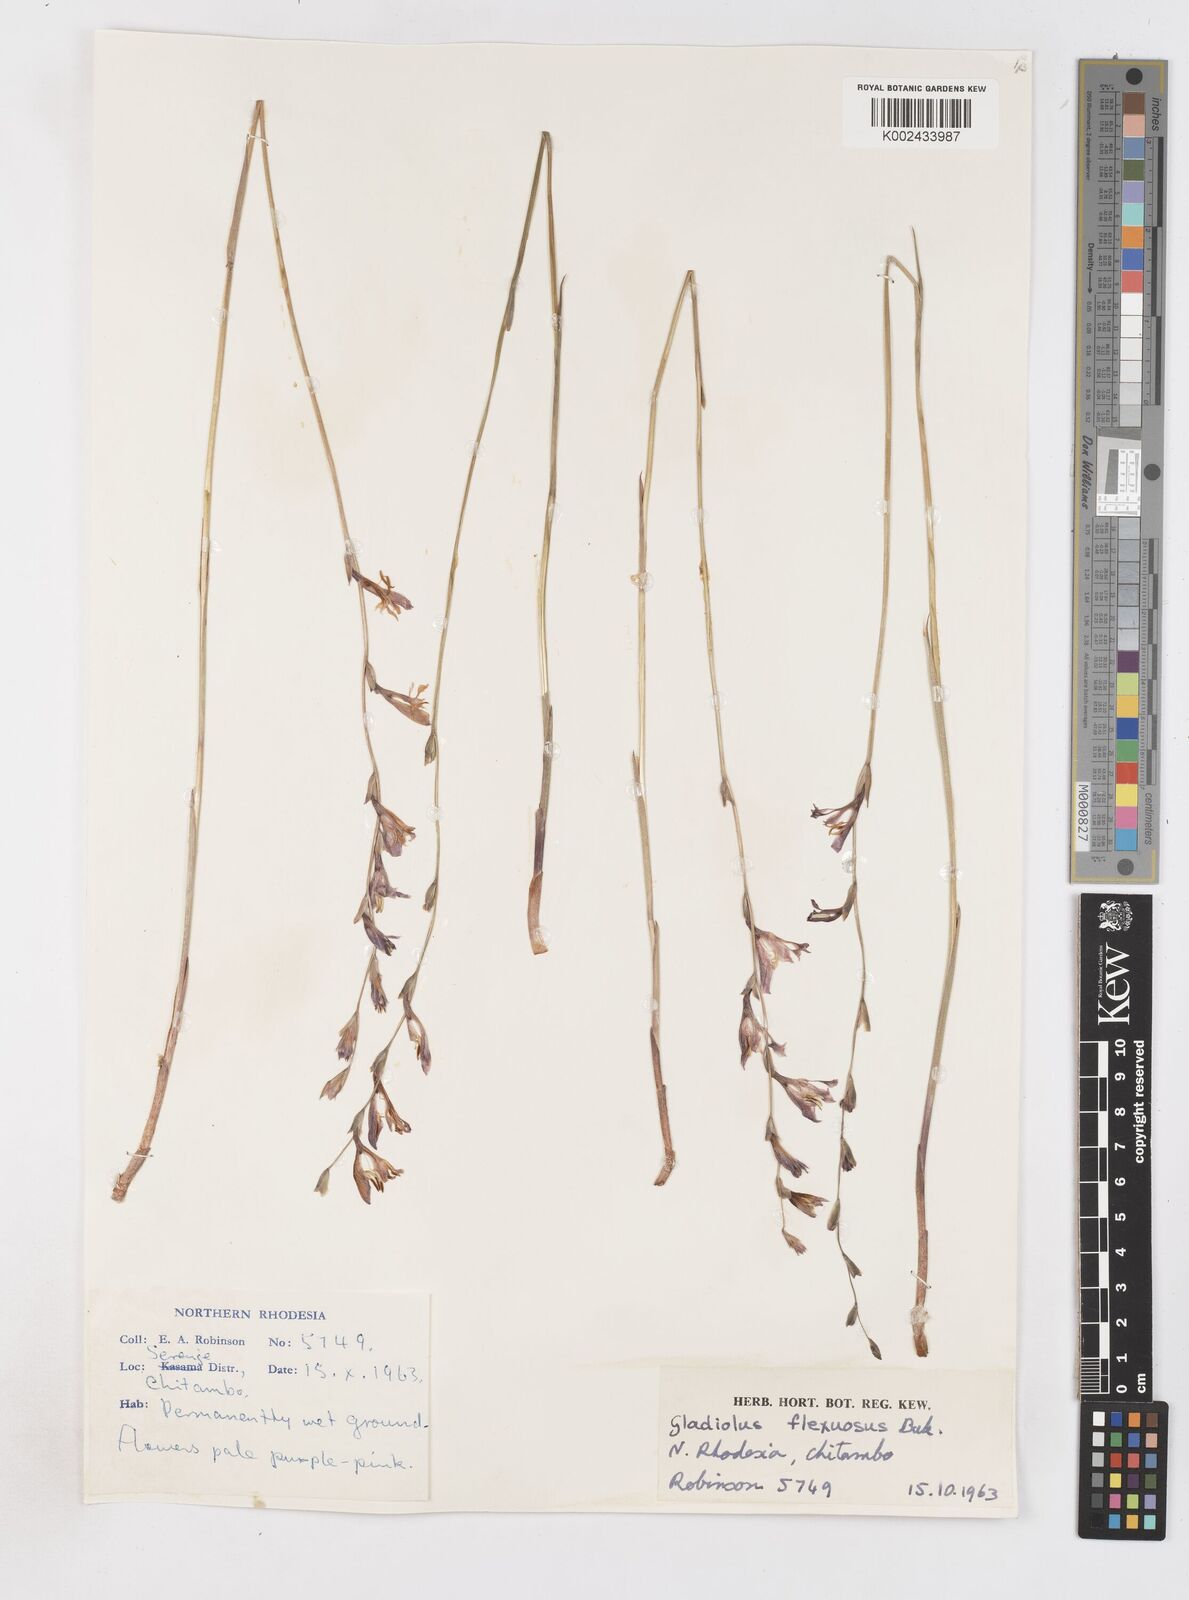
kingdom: Plantae
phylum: Tracheophyta
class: Liliopsida
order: Asparagales
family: Iridaceae
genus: Gladiolus
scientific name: Gladiolus atropurpureus
